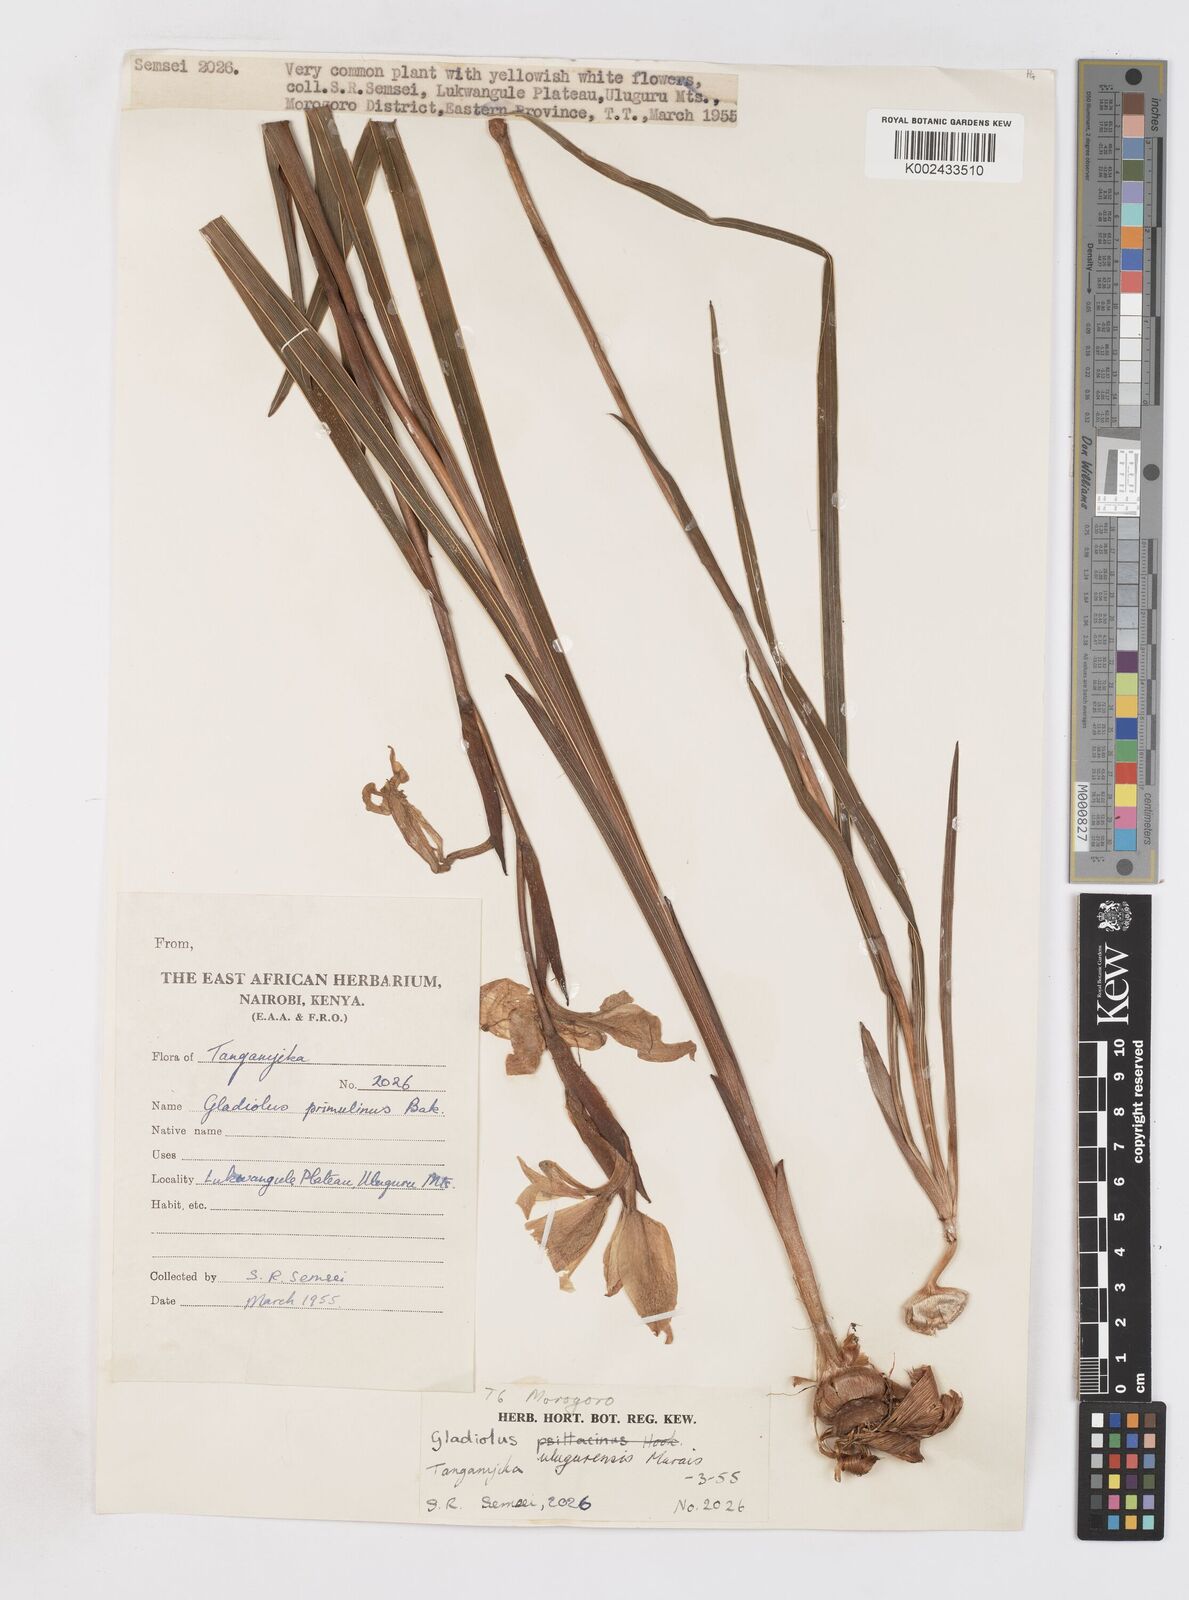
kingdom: Plantae
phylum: Tracheophyta
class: Liliopsida
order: Asparagales
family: Iridaceae
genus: Gladiolus
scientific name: Gladiolus dalenii
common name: Cornflag
